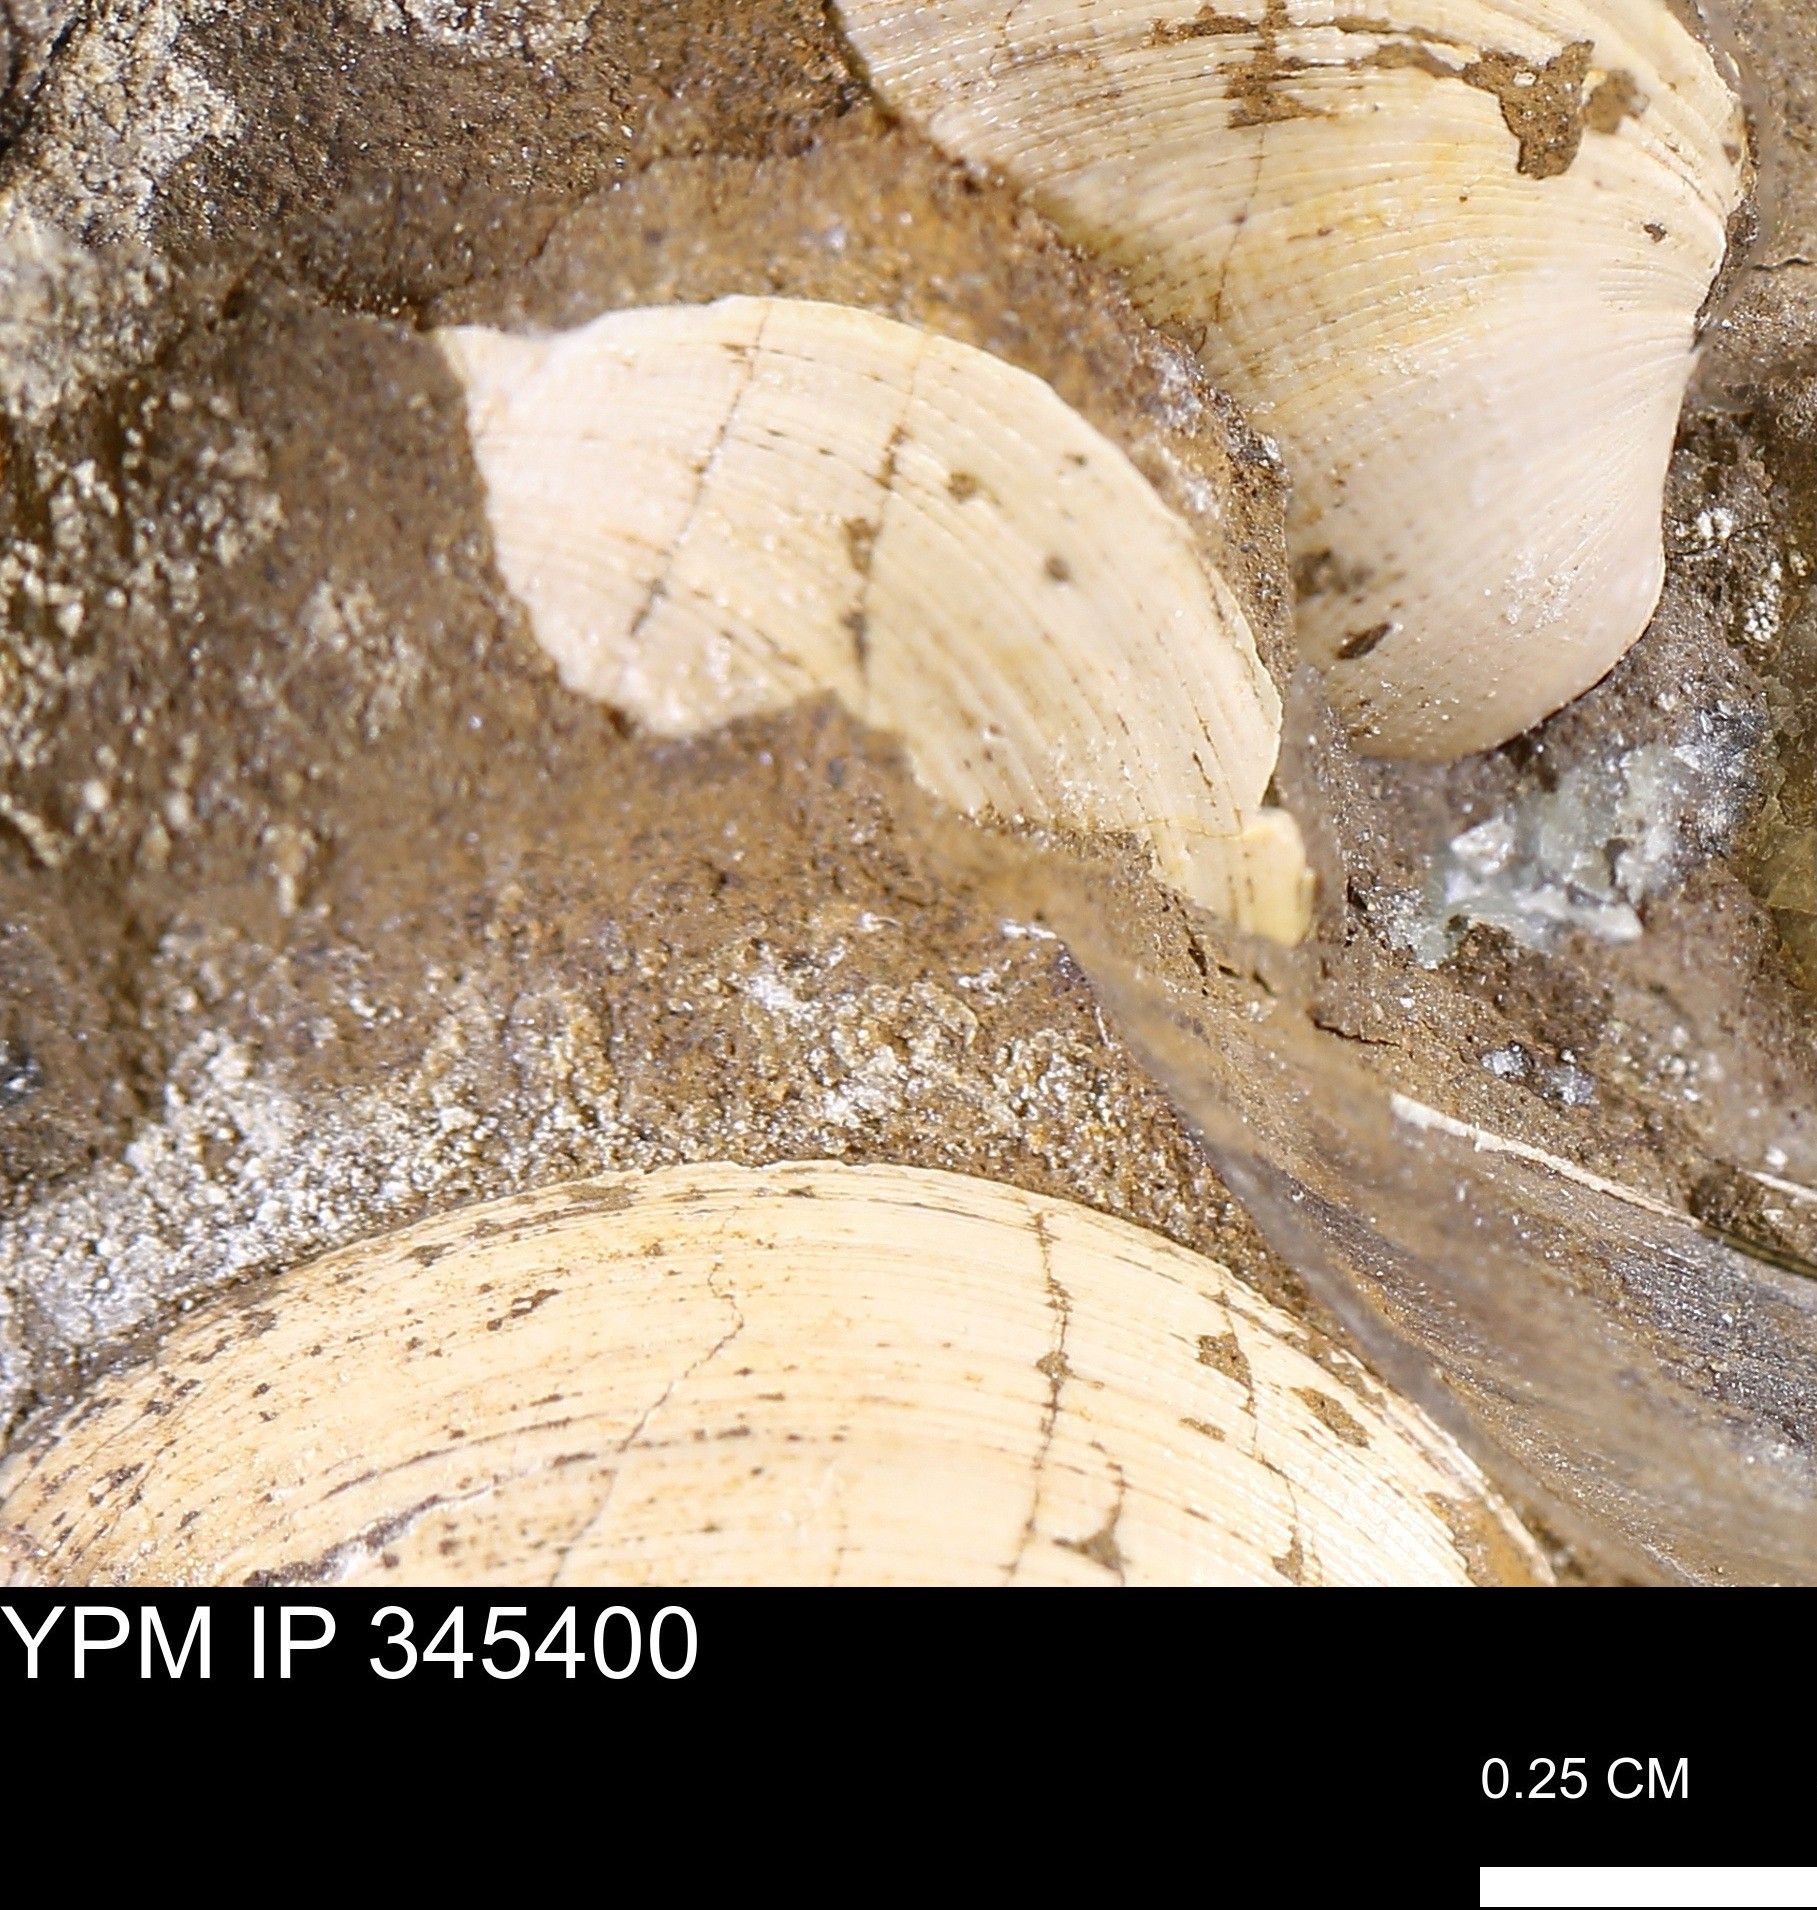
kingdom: Animalia
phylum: Mollusca
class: Bivalvia
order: Arcida
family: Limopsidae
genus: Limopsis
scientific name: Limopsis
